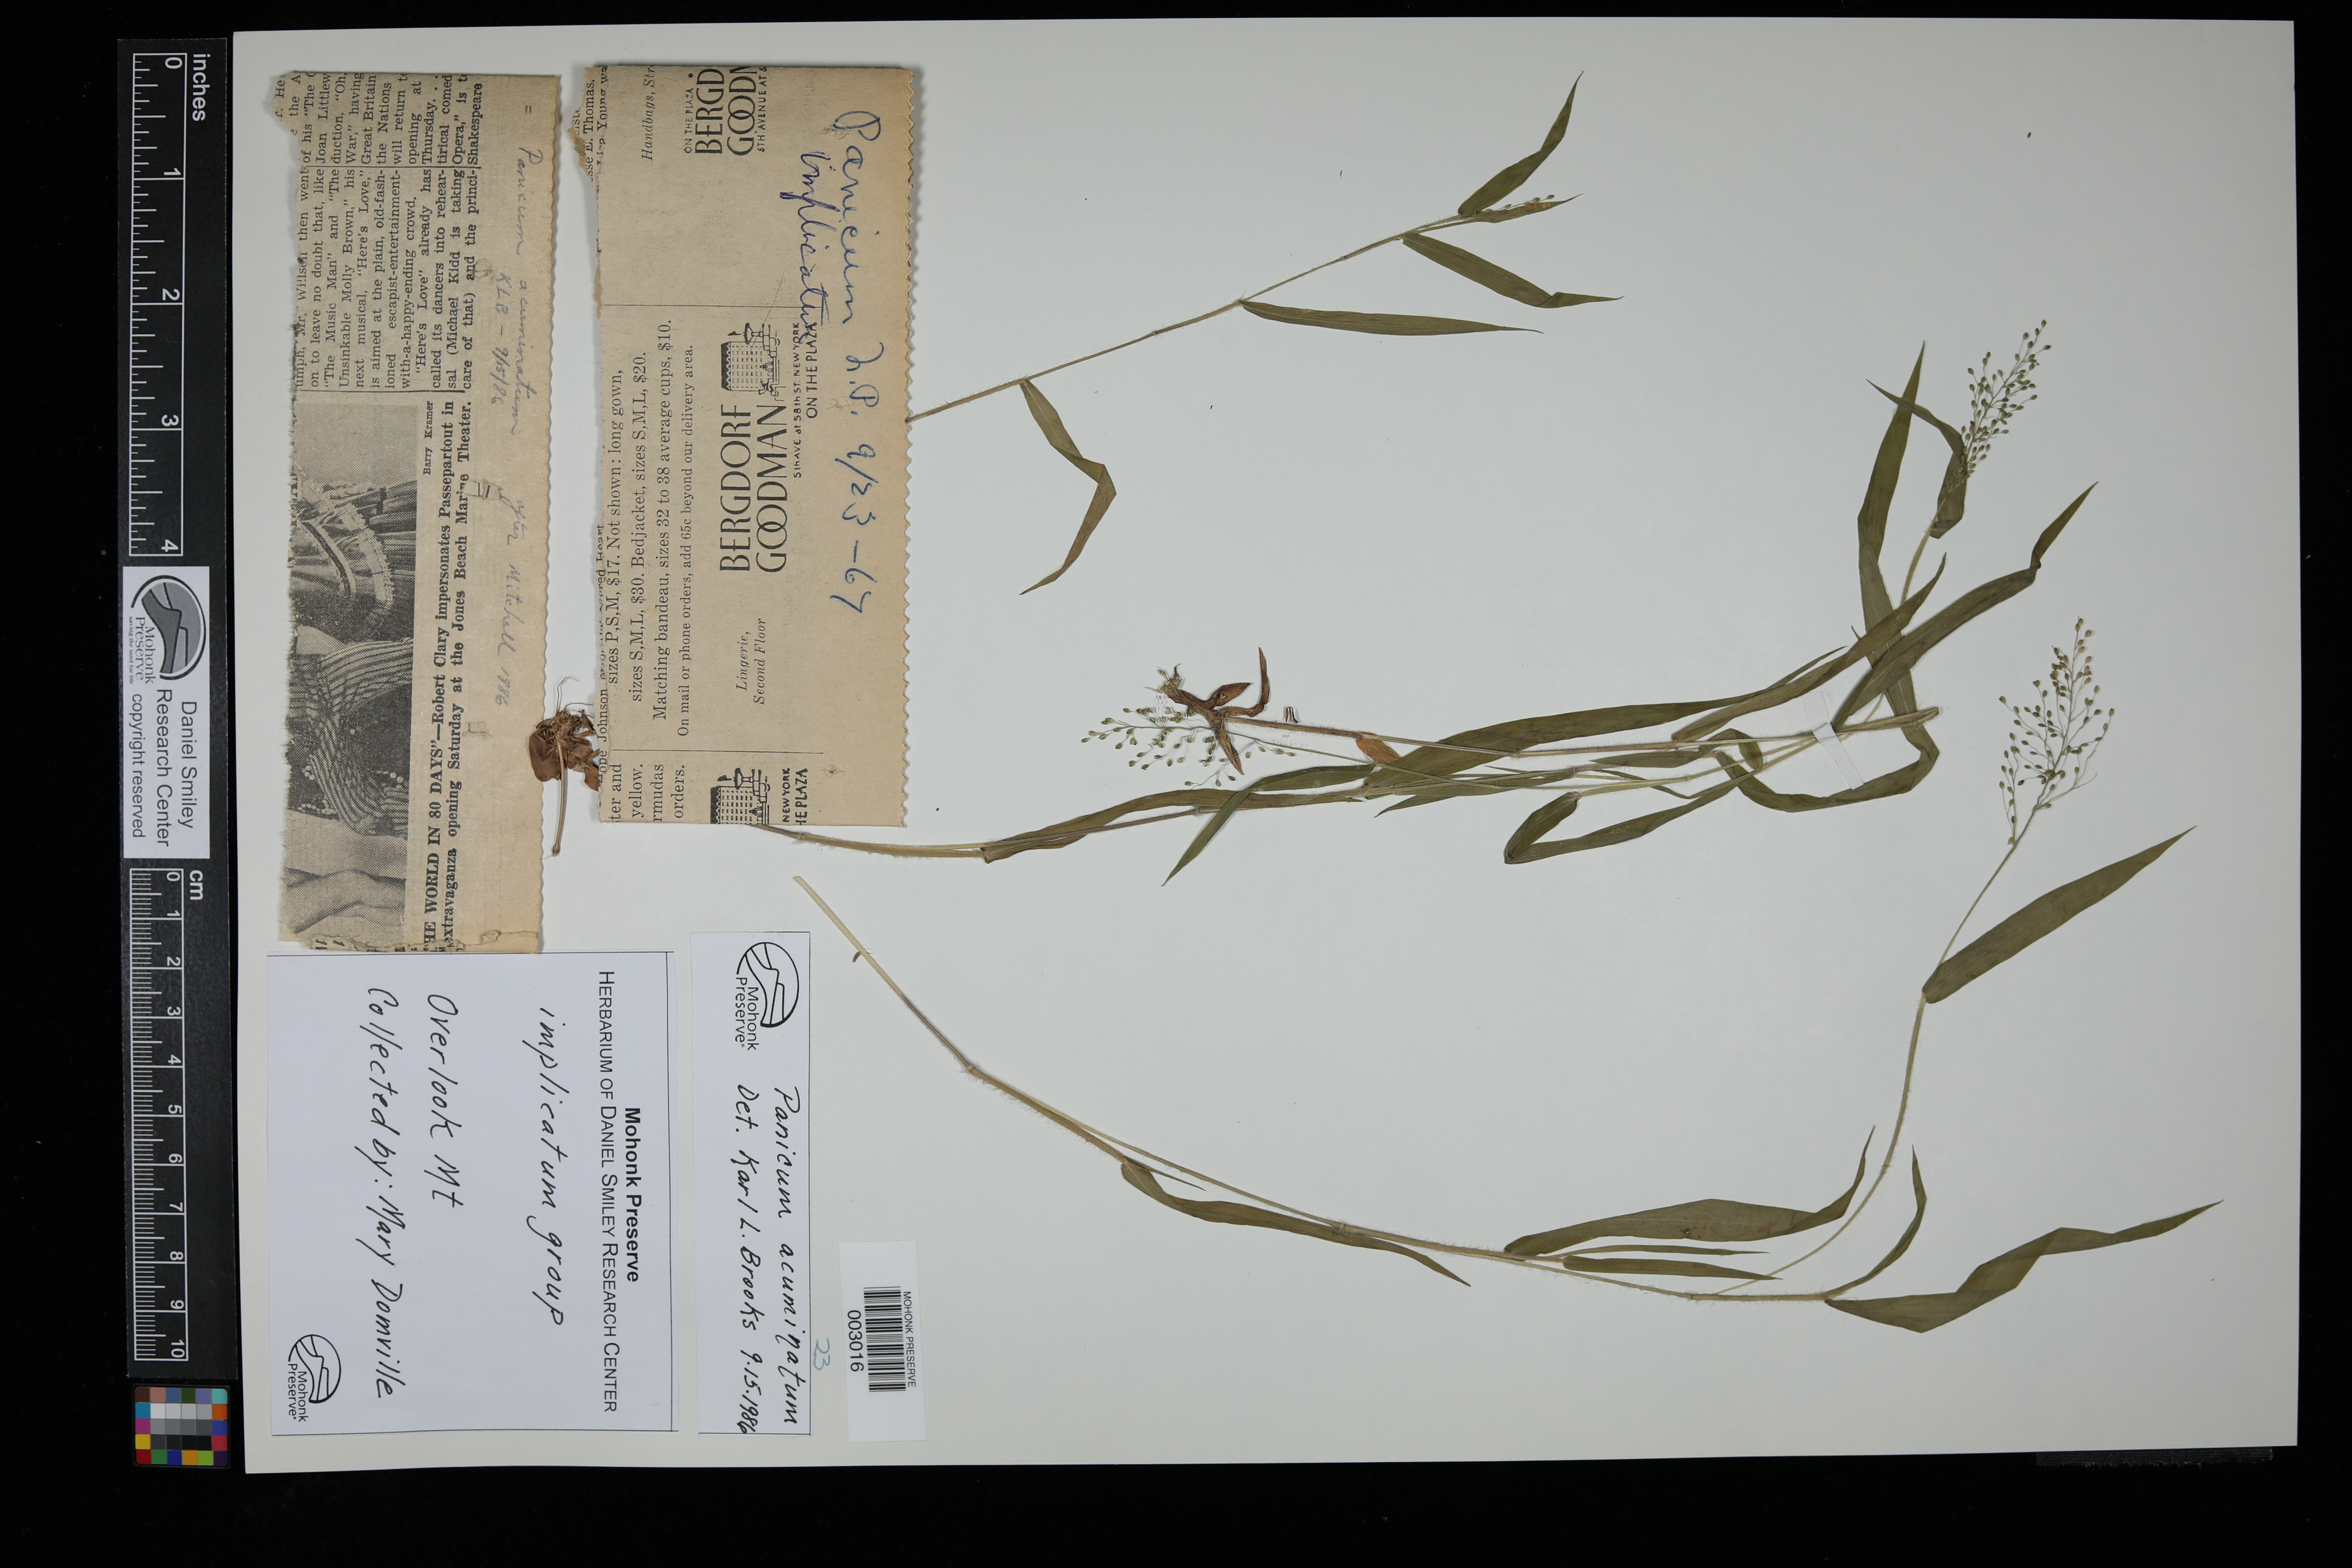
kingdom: Plantae
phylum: Tracheophyta
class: Liliopsida
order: Poales
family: Poaceae
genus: Dichanthelium
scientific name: Dichanthelium acuminatum
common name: Hairy panic grass
